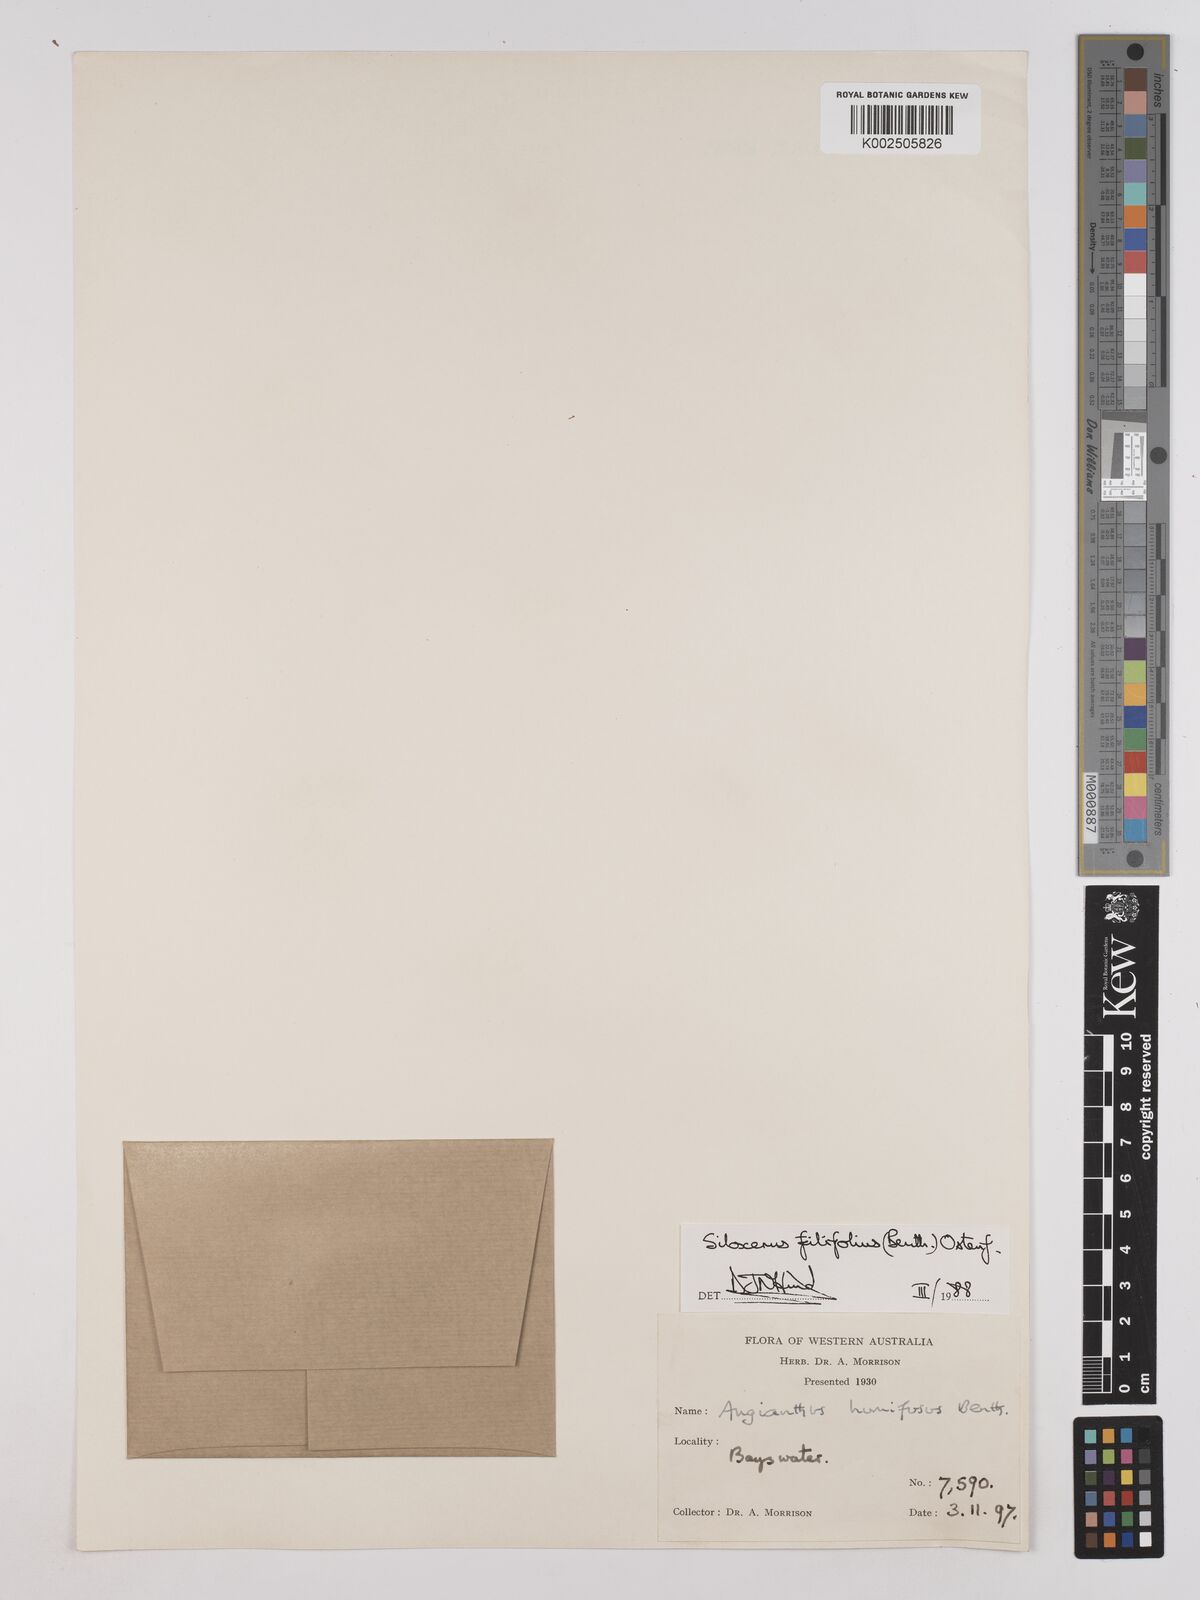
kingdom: Plantae
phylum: Tracheophyta
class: Magnoliopsida
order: Asterales
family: Asteraceae
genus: Siloxerus
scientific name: Siloxerus filifolius
